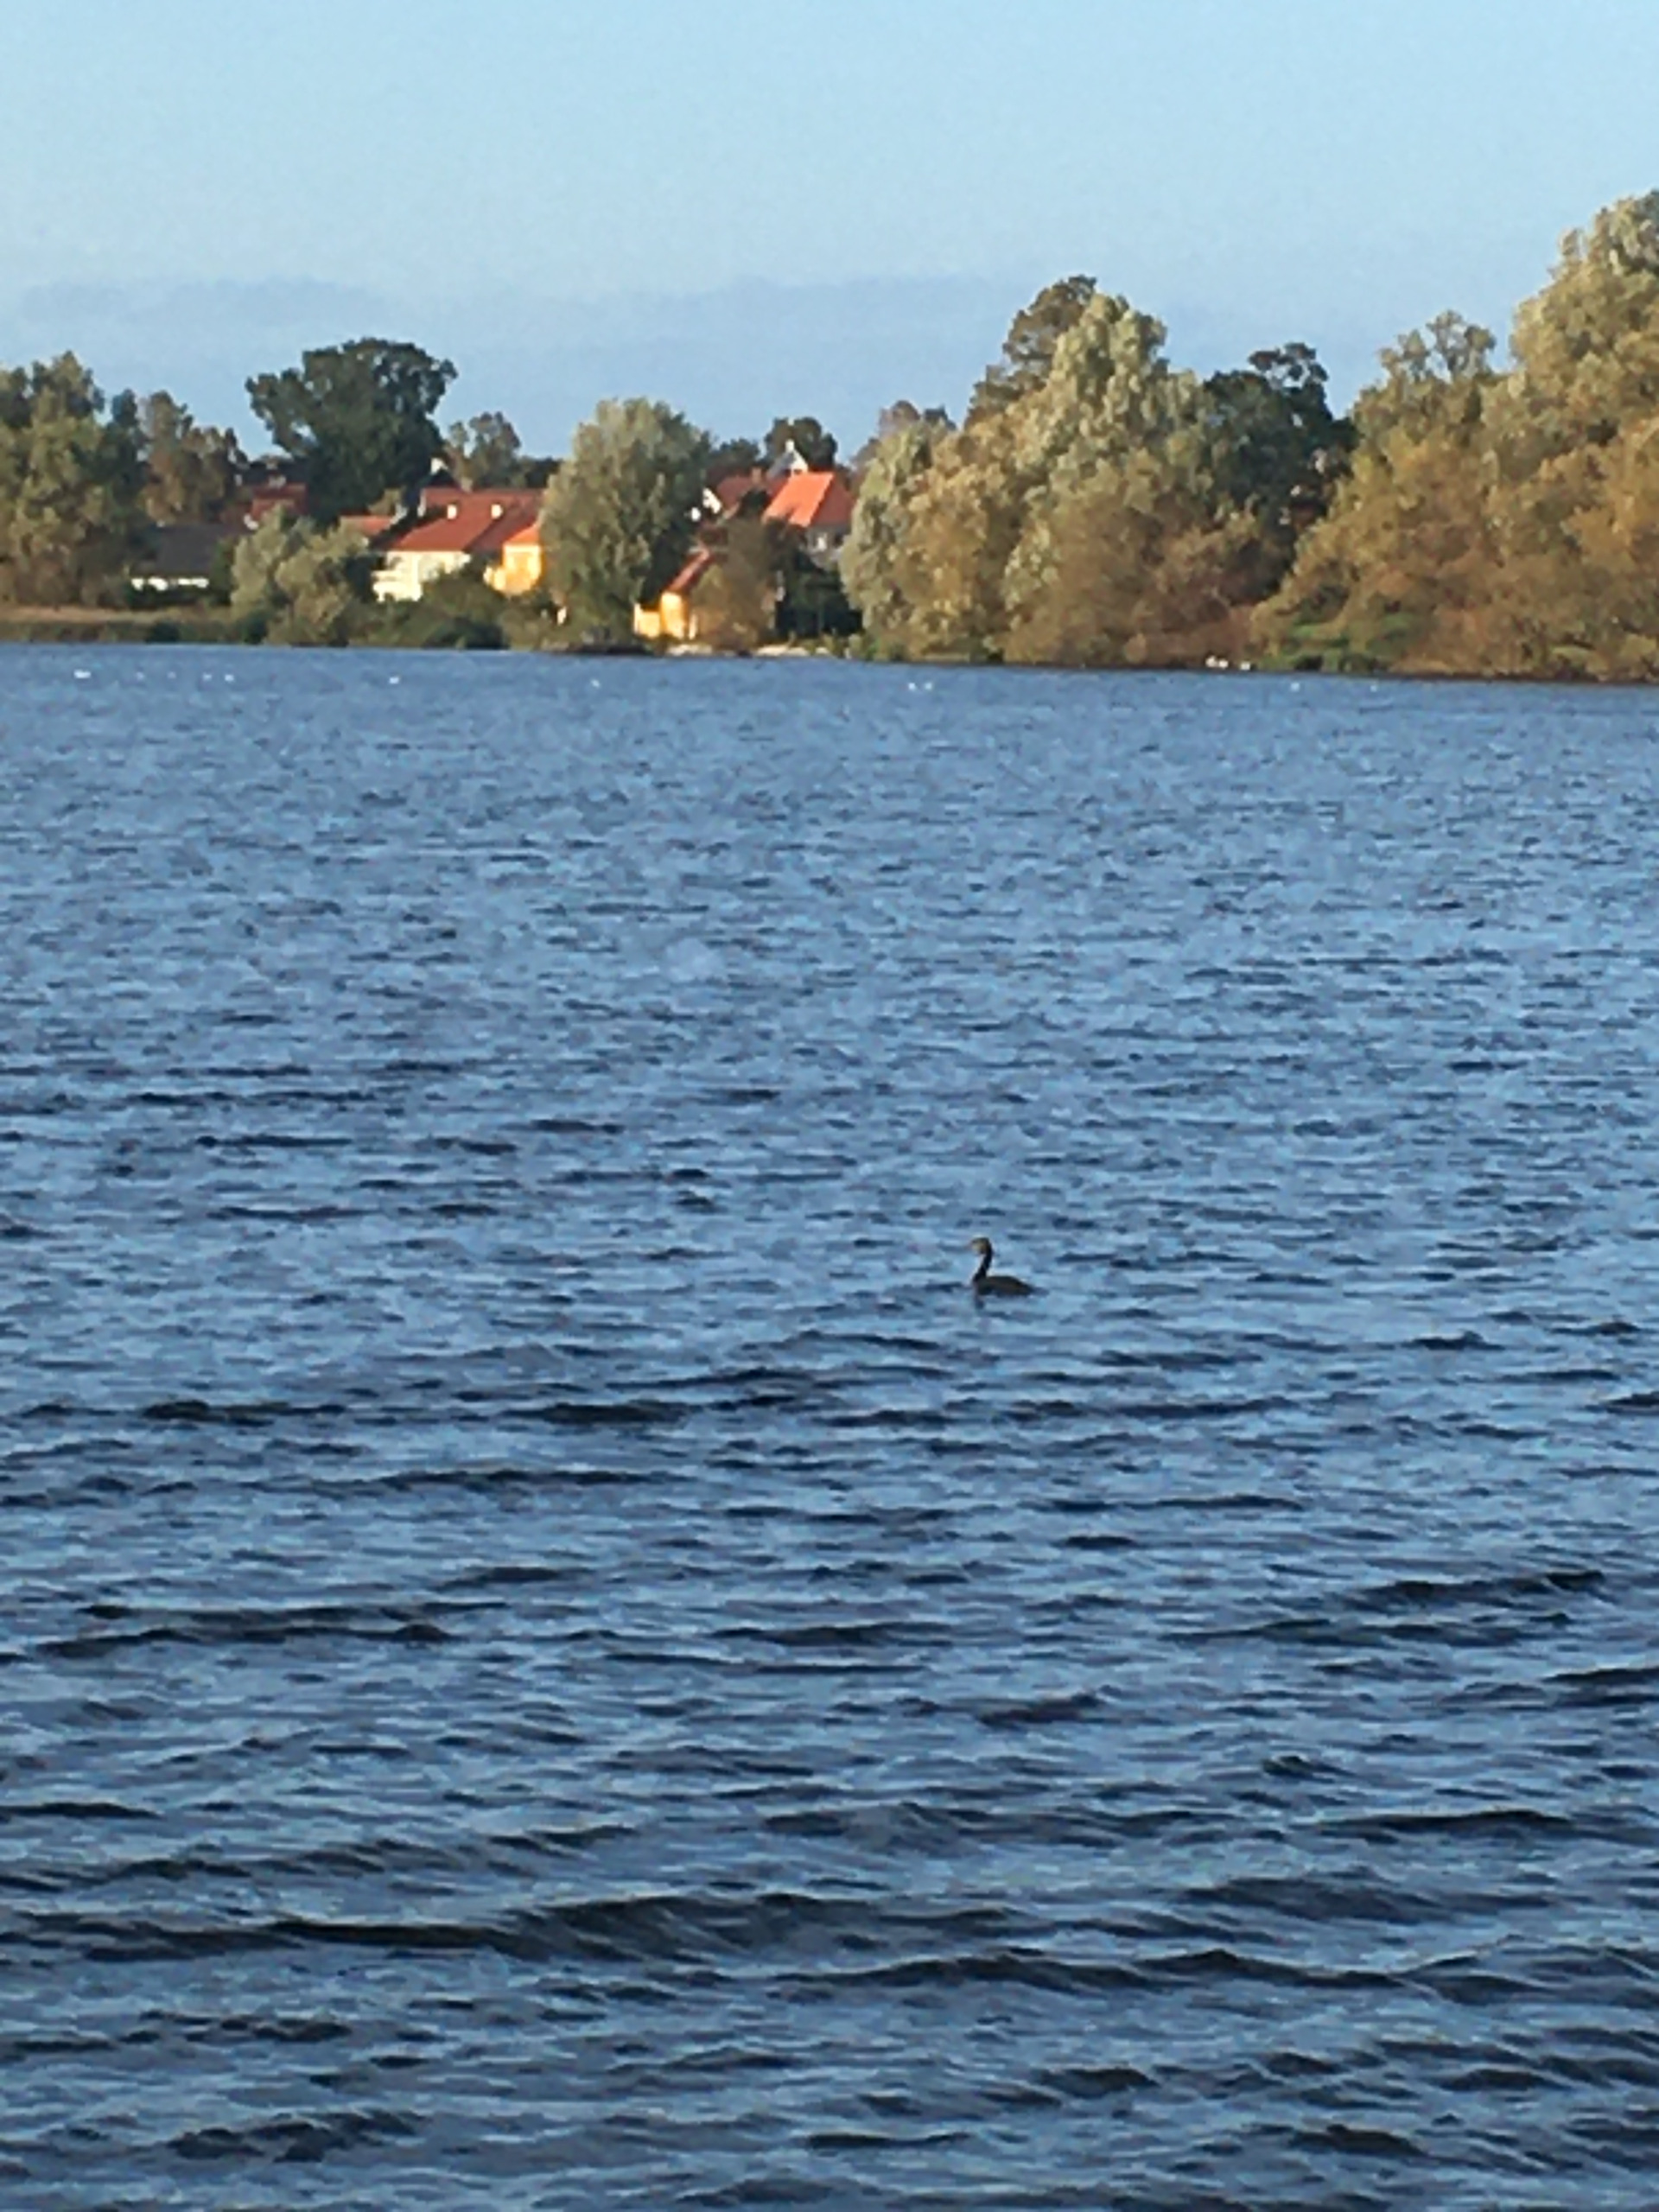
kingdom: Animalia
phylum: Chordata
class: Aves
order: Podicipediformes
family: Podicipedidae
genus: Podiceps
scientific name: Podiceps cristatus
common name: Toppet lappedykker
